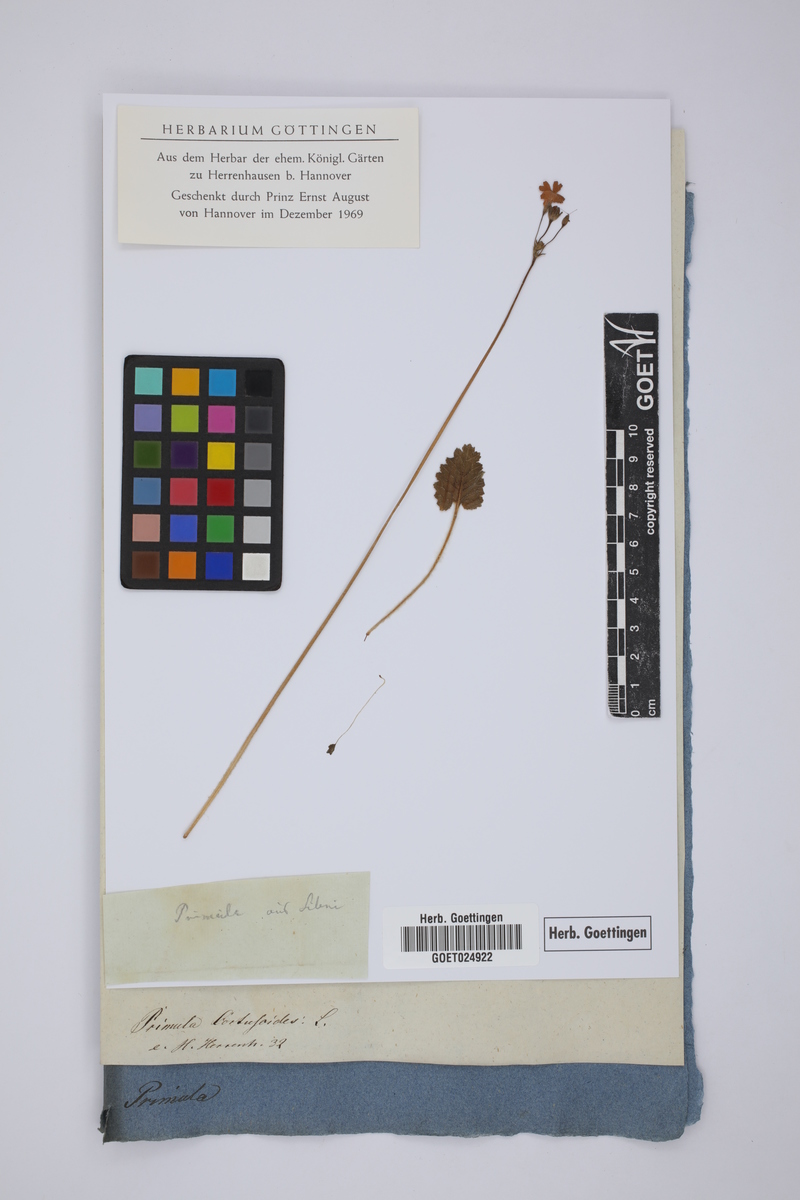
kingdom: Plantae
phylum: Tracheophyta
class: Magnoliopsida
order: Ericales
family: Primulaceae
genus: Primula
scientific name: Primula cortusoides
